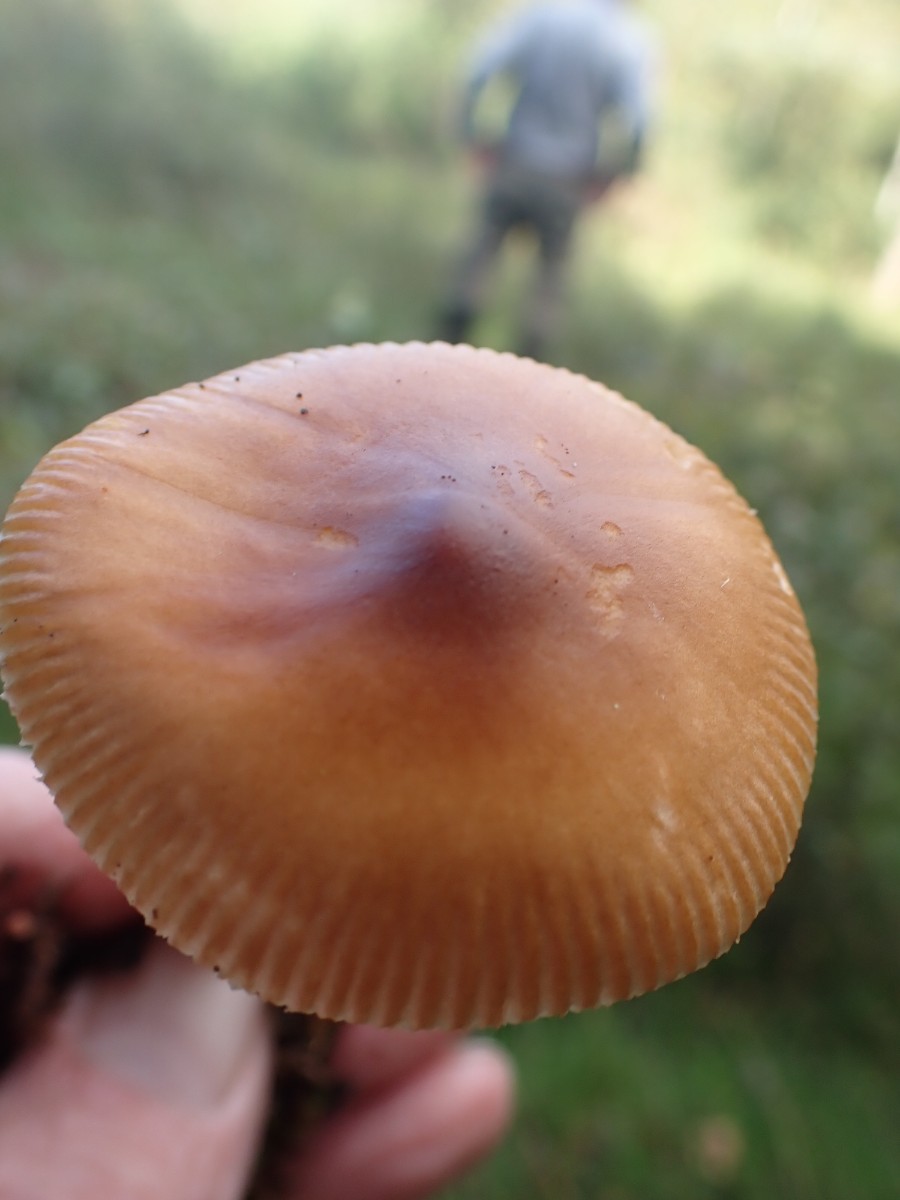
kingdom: Fungi
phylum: Basidiomycota
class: Agaricomycetes
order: Agaricales
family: Amanitaceae
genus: Amanita
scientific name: Amanita fulva
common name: brun kam-fluesvamp
